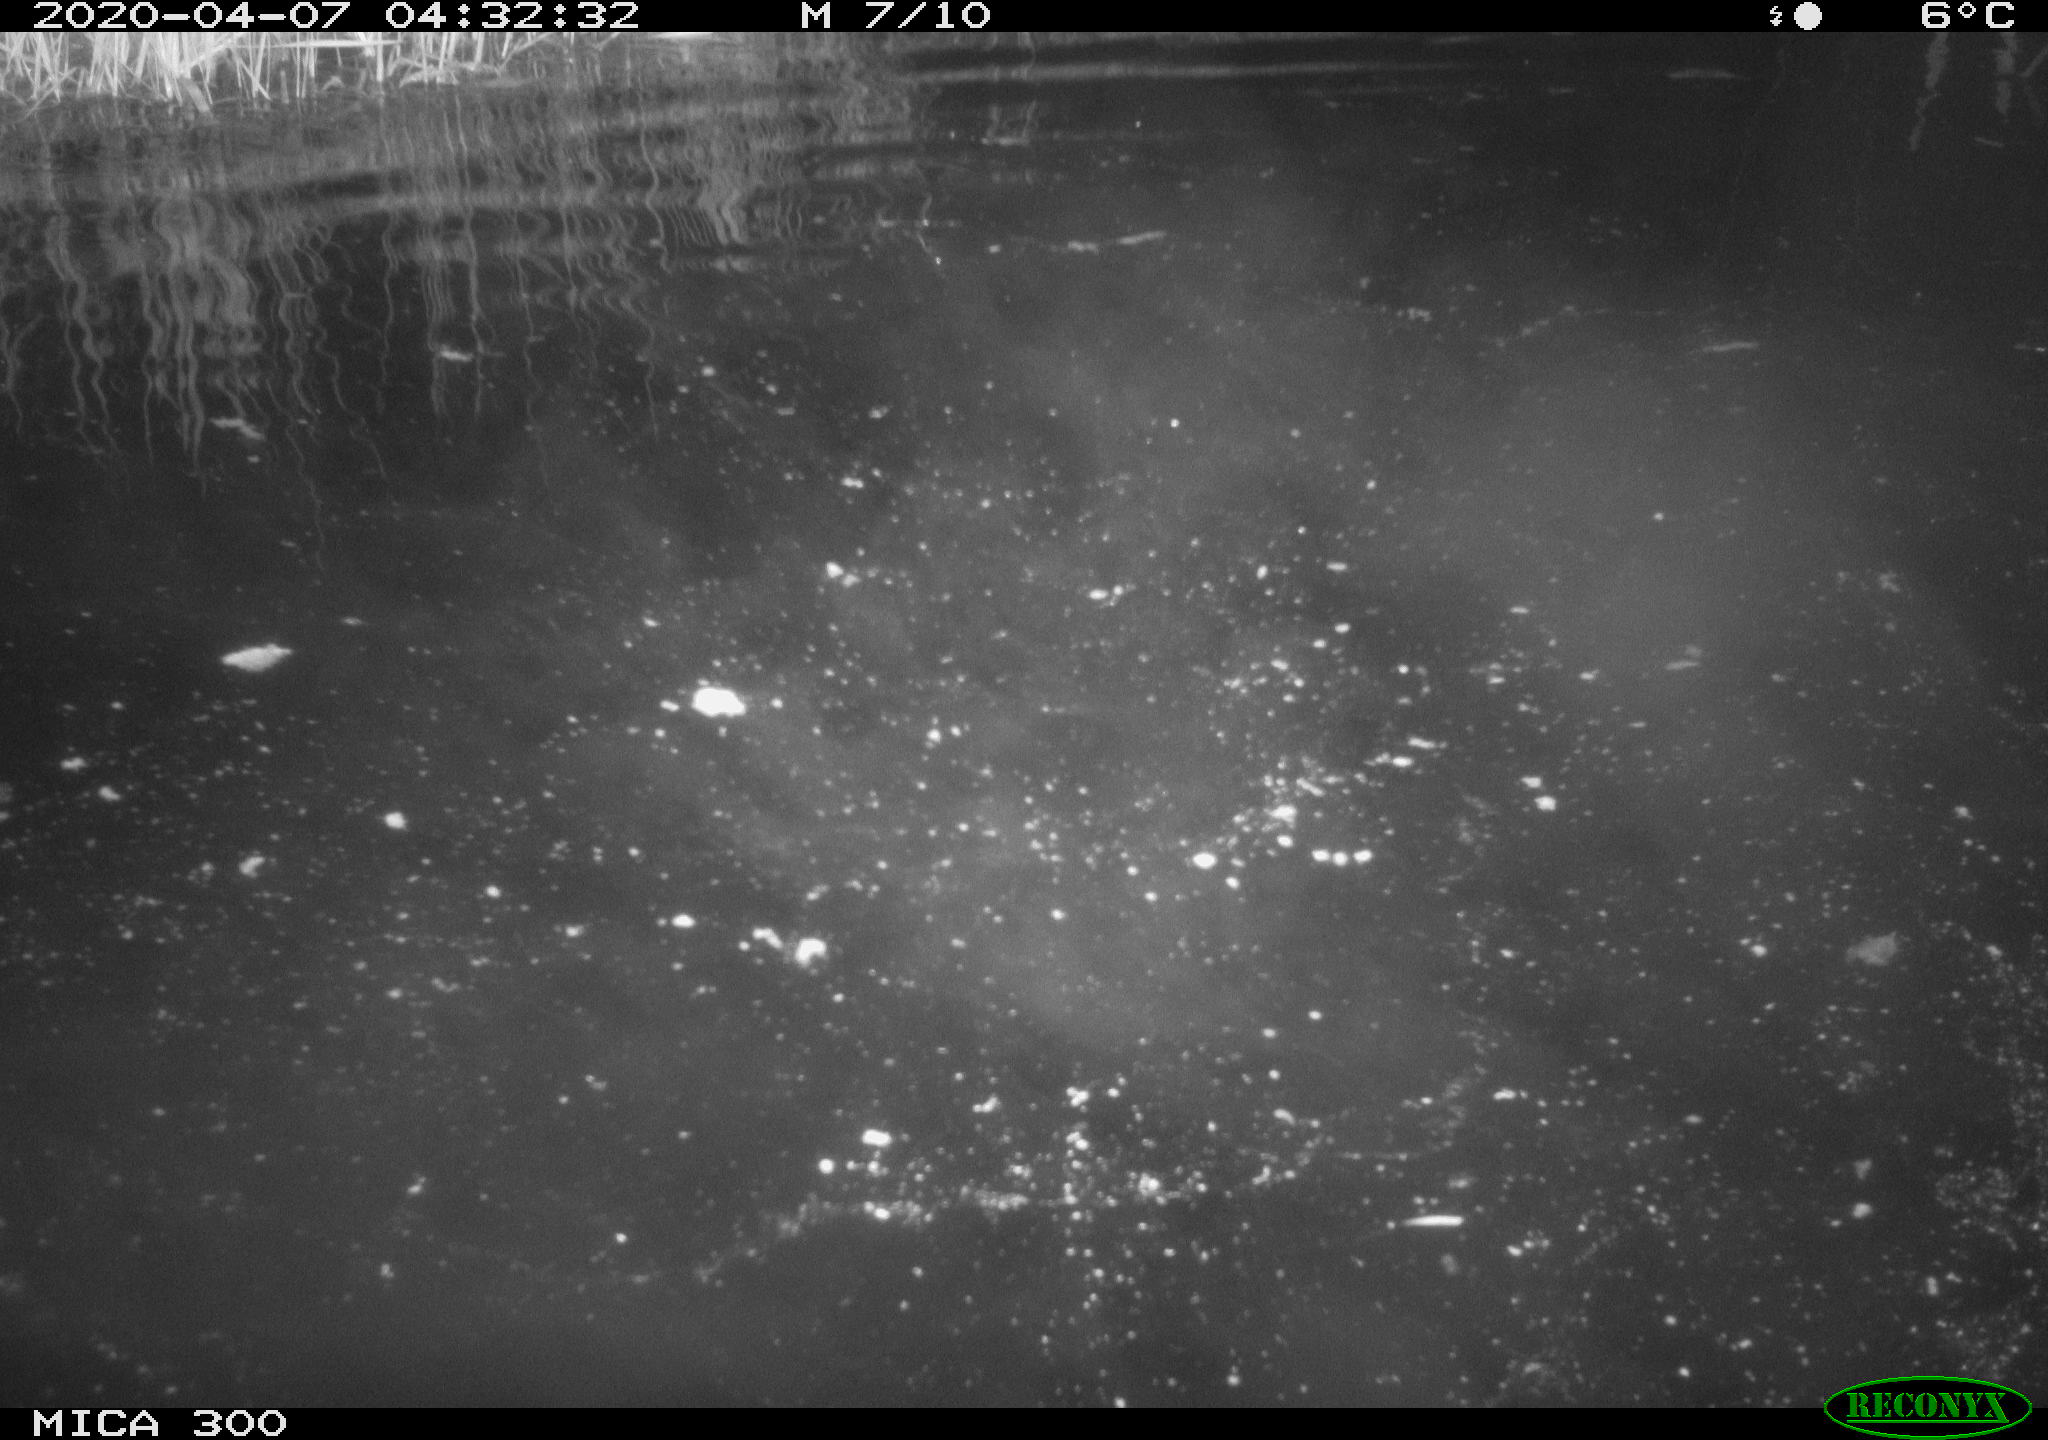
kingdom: Animalia
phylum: Chordata
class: Mammalia
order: Rodentia
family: Castoridae
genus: Castor
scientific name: Castor fiber
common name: Eurasian beaver
